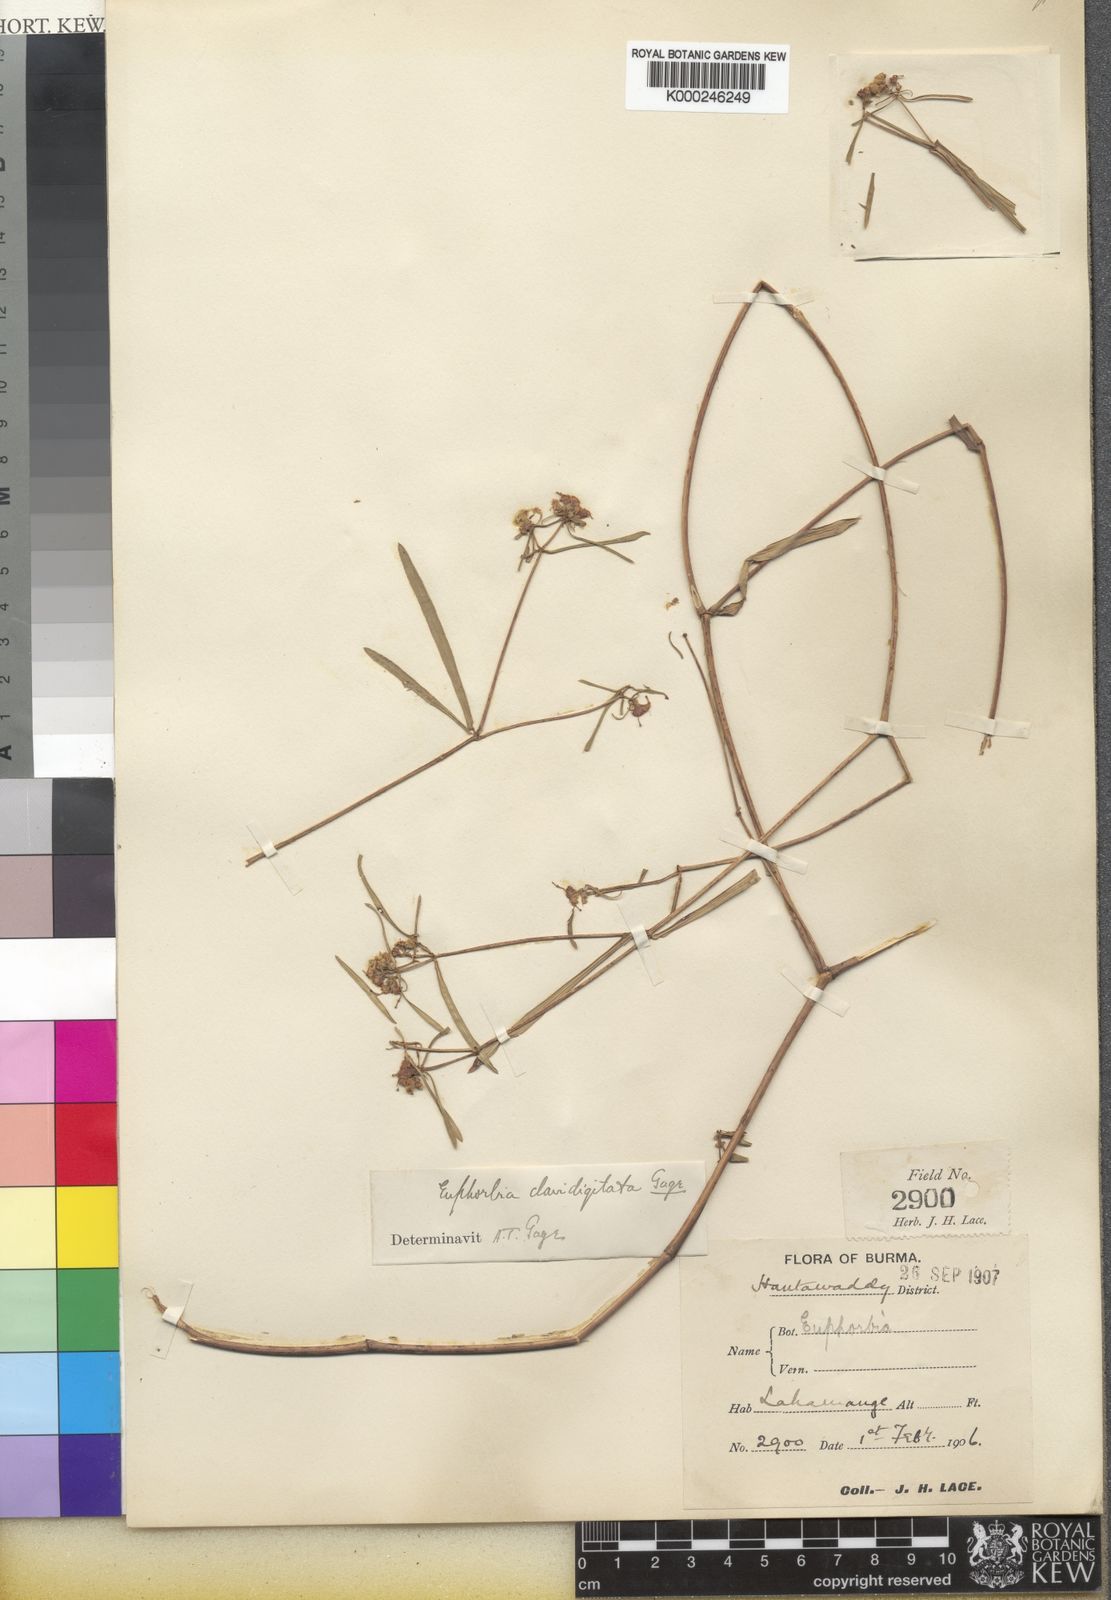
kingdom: Plantae
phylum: Tracheophyta
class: Magnoliopsida
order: Malpighiales
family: Euphorbiaceae
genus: Euphorbia
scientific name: Euphorbia clavidigitata
